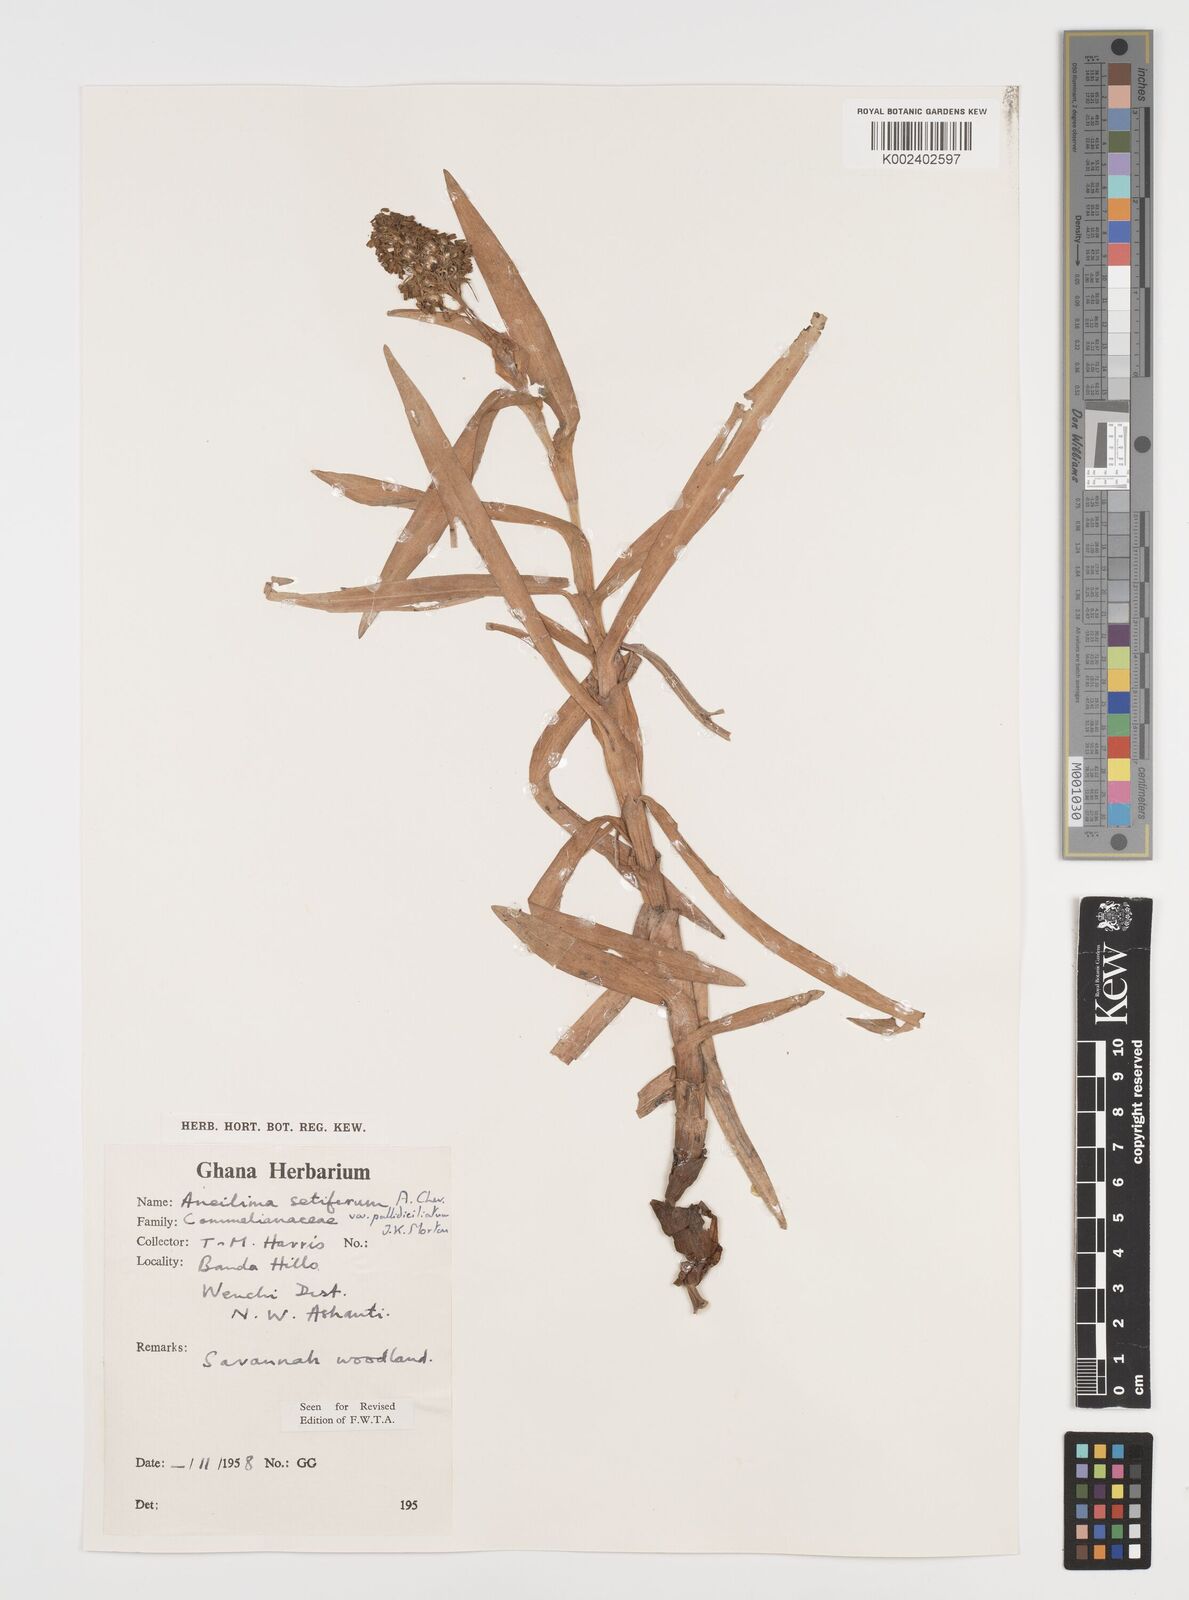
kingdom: Plantae
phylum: Tracheophyta
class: Liliopsida
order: Commelinales
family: Commelinaceae
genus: Aneilema
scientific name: Aneilema setiferum
